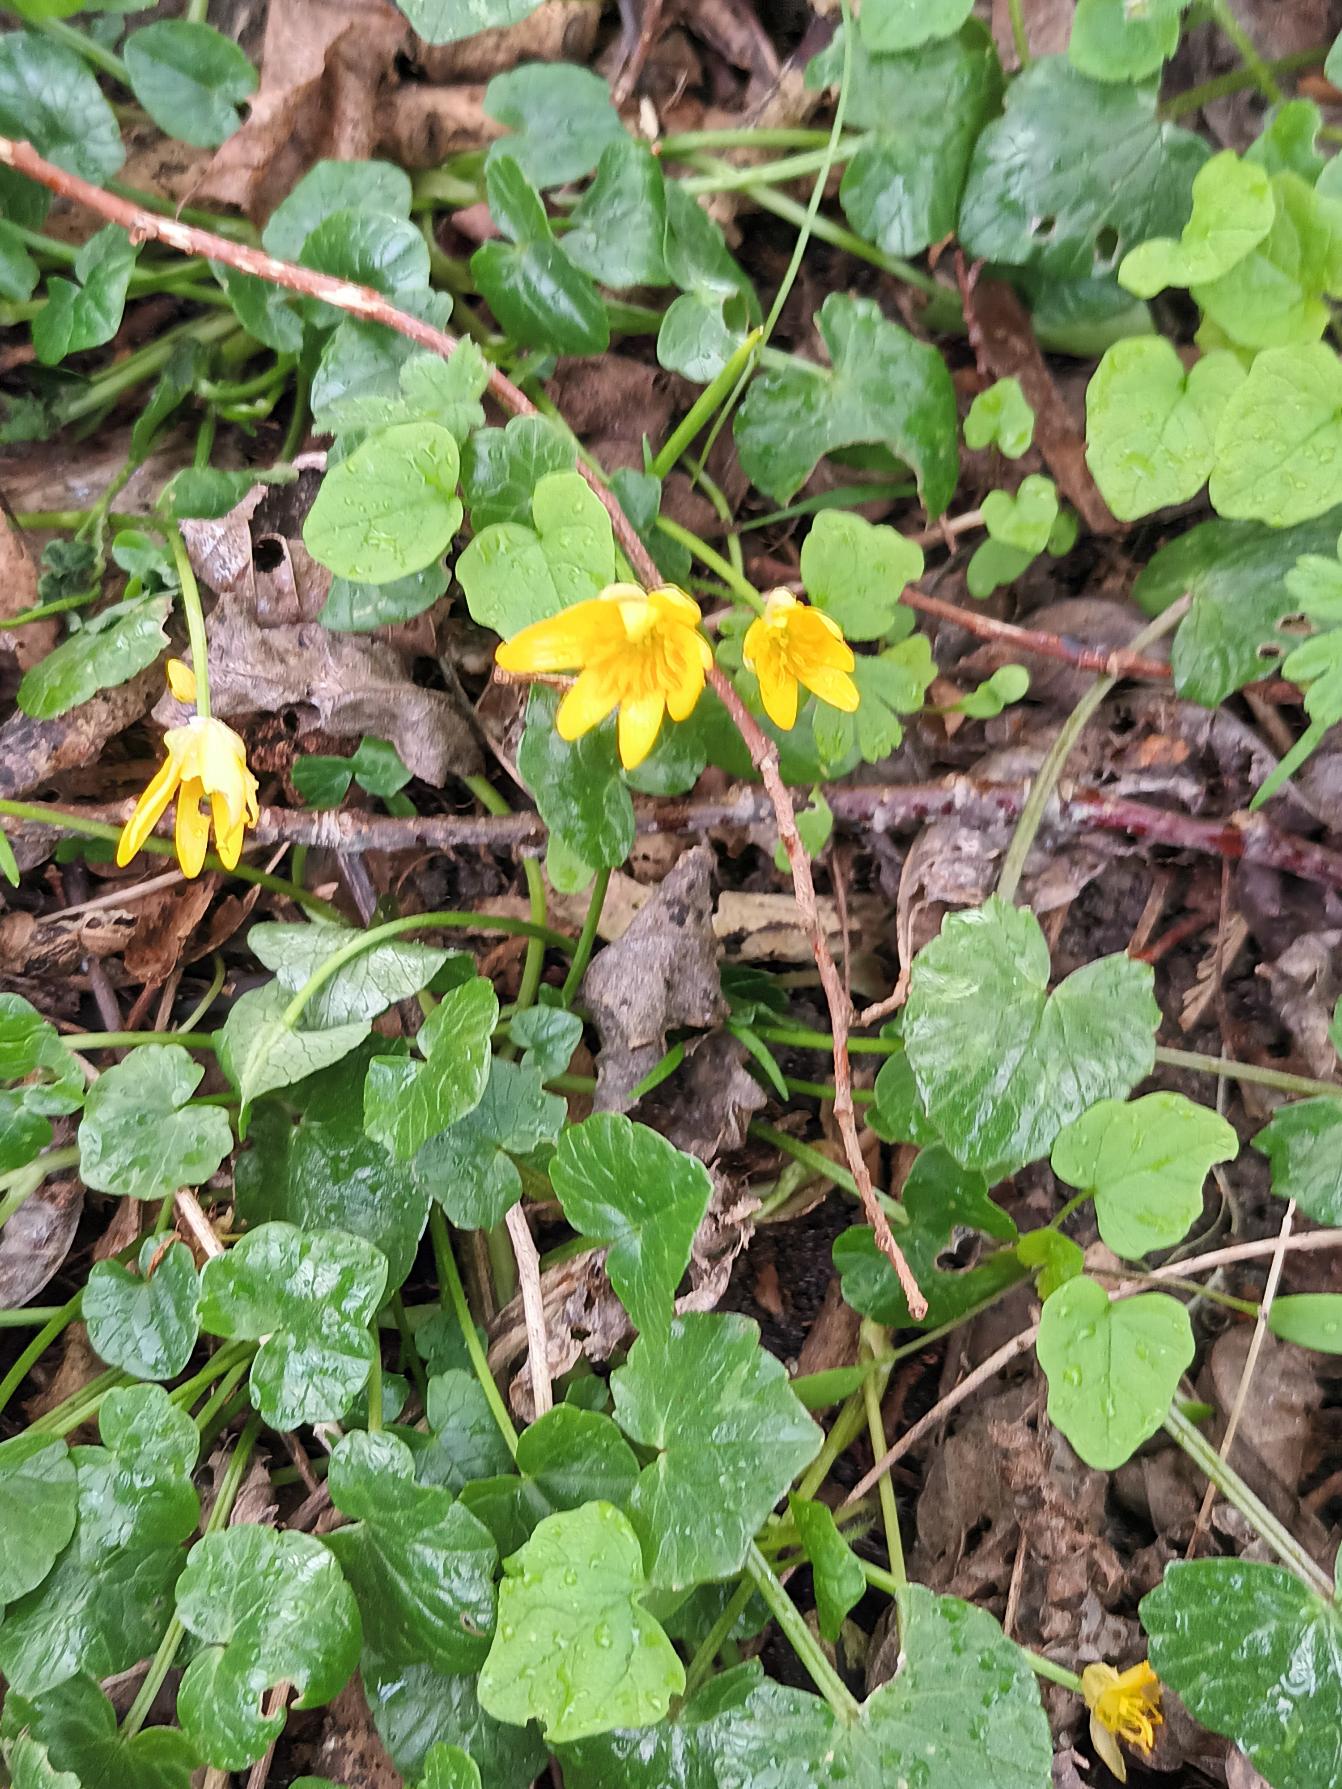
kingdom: Plantae
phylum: Tracheophyta
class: Magnoliopsida
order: Ranunculales
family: Ranunculaceae
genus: Ficaria
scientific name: Ficaria verna
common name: Vorterod
